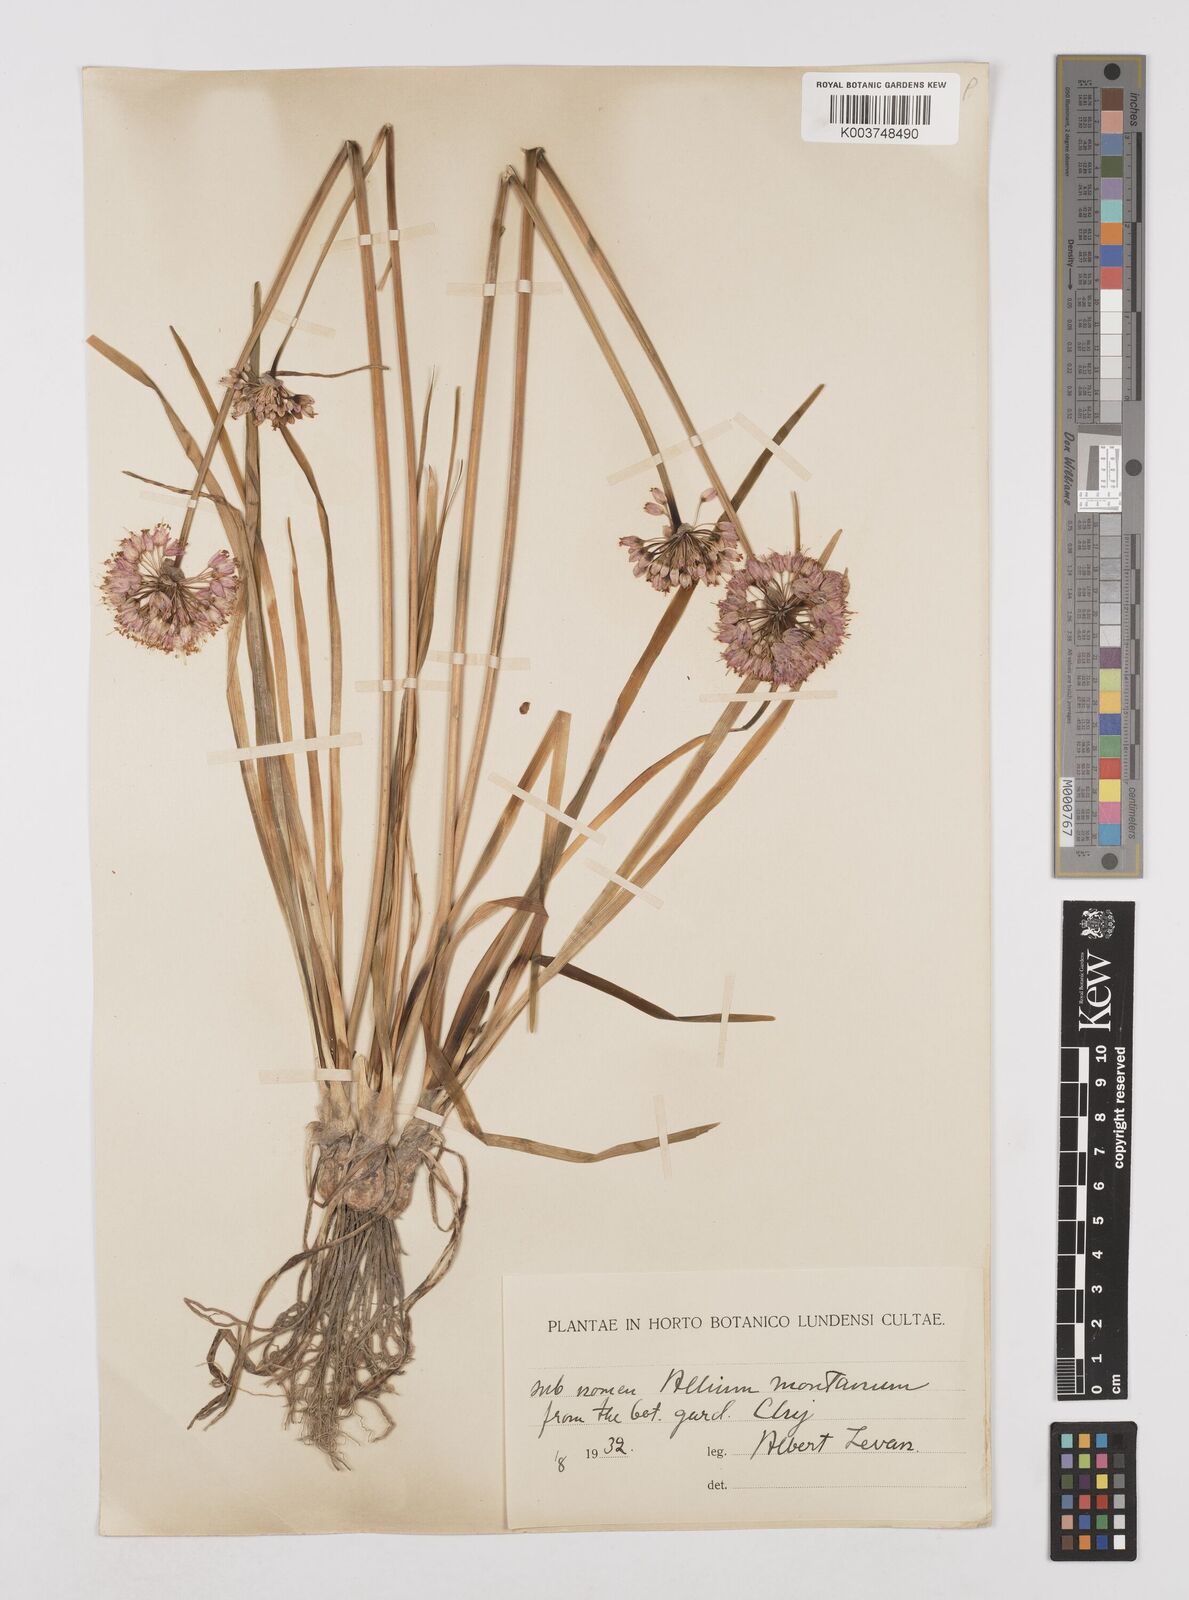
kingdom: Plantae
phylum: Tracheophyta
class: Liliopsida
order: Asparagales
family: Amaryllidaceae
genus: Allium
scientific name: Allium
